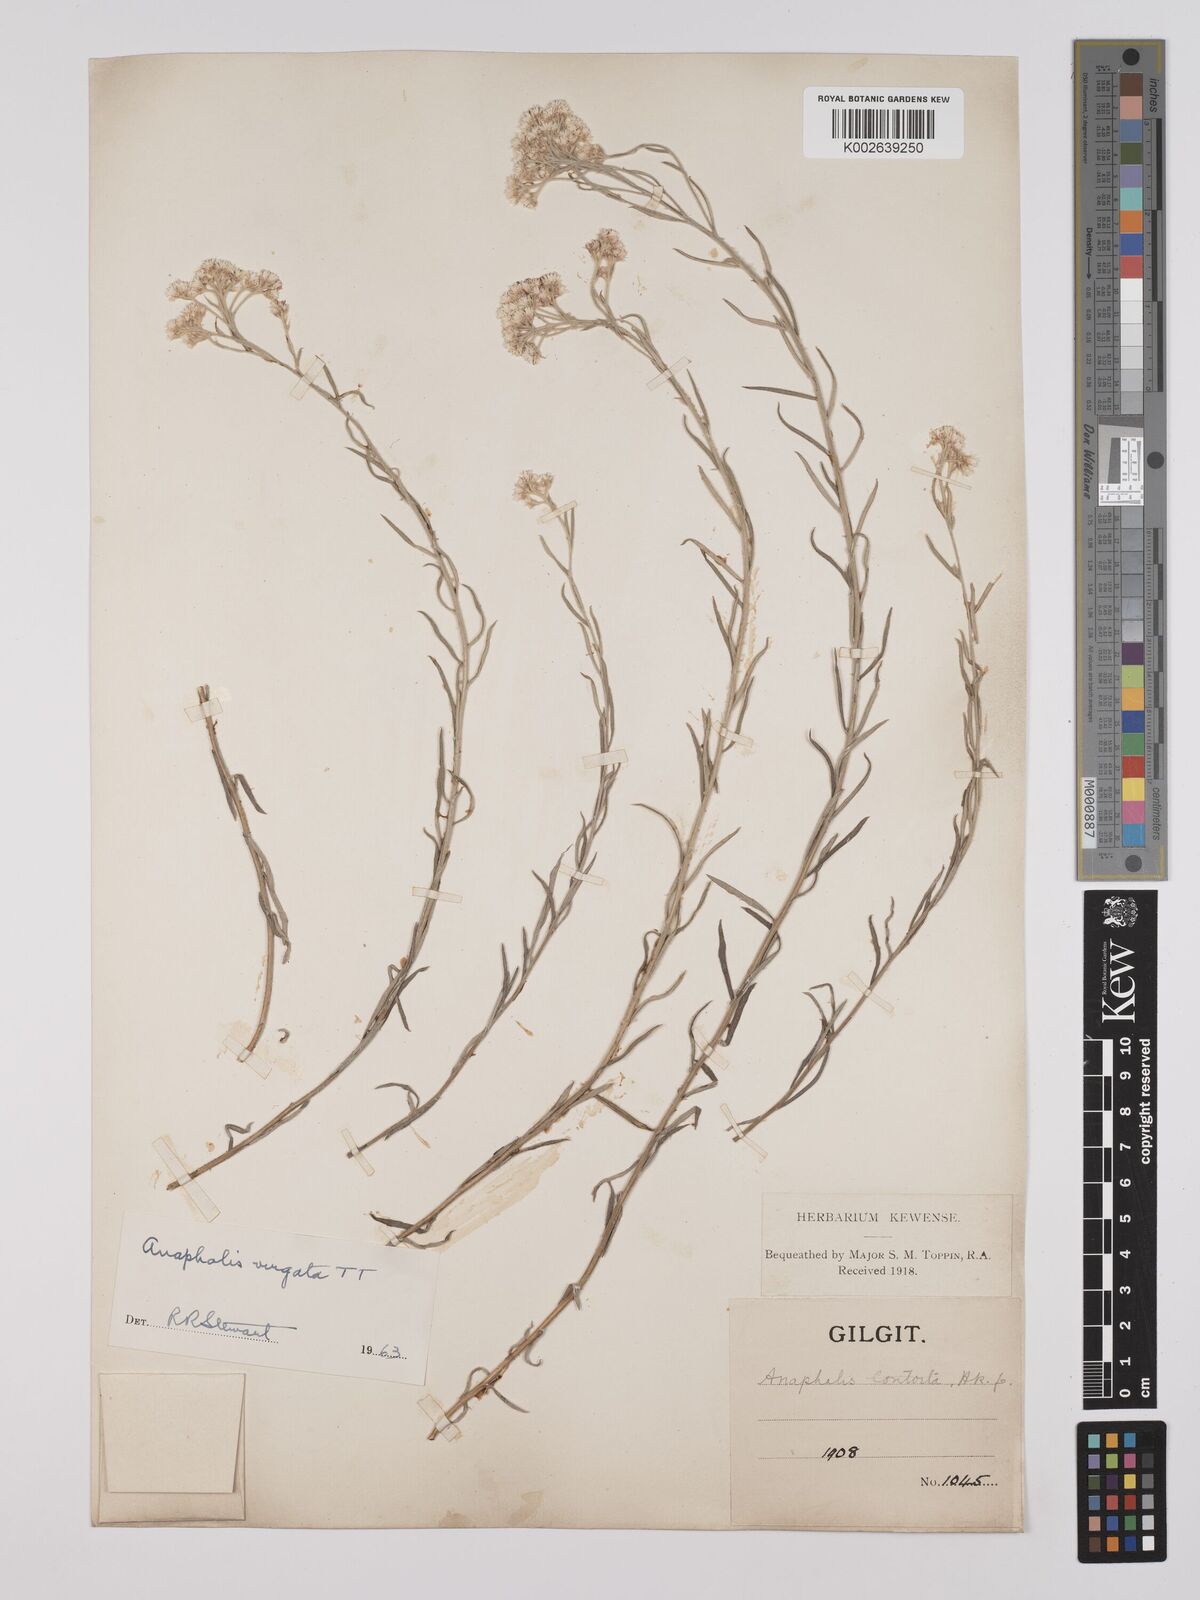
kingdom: Plantae
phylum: Tracheophyta
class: Magnoliopsida
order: Asterales
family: Asteraceae
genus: Anaphalis
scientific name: Anaphalis
